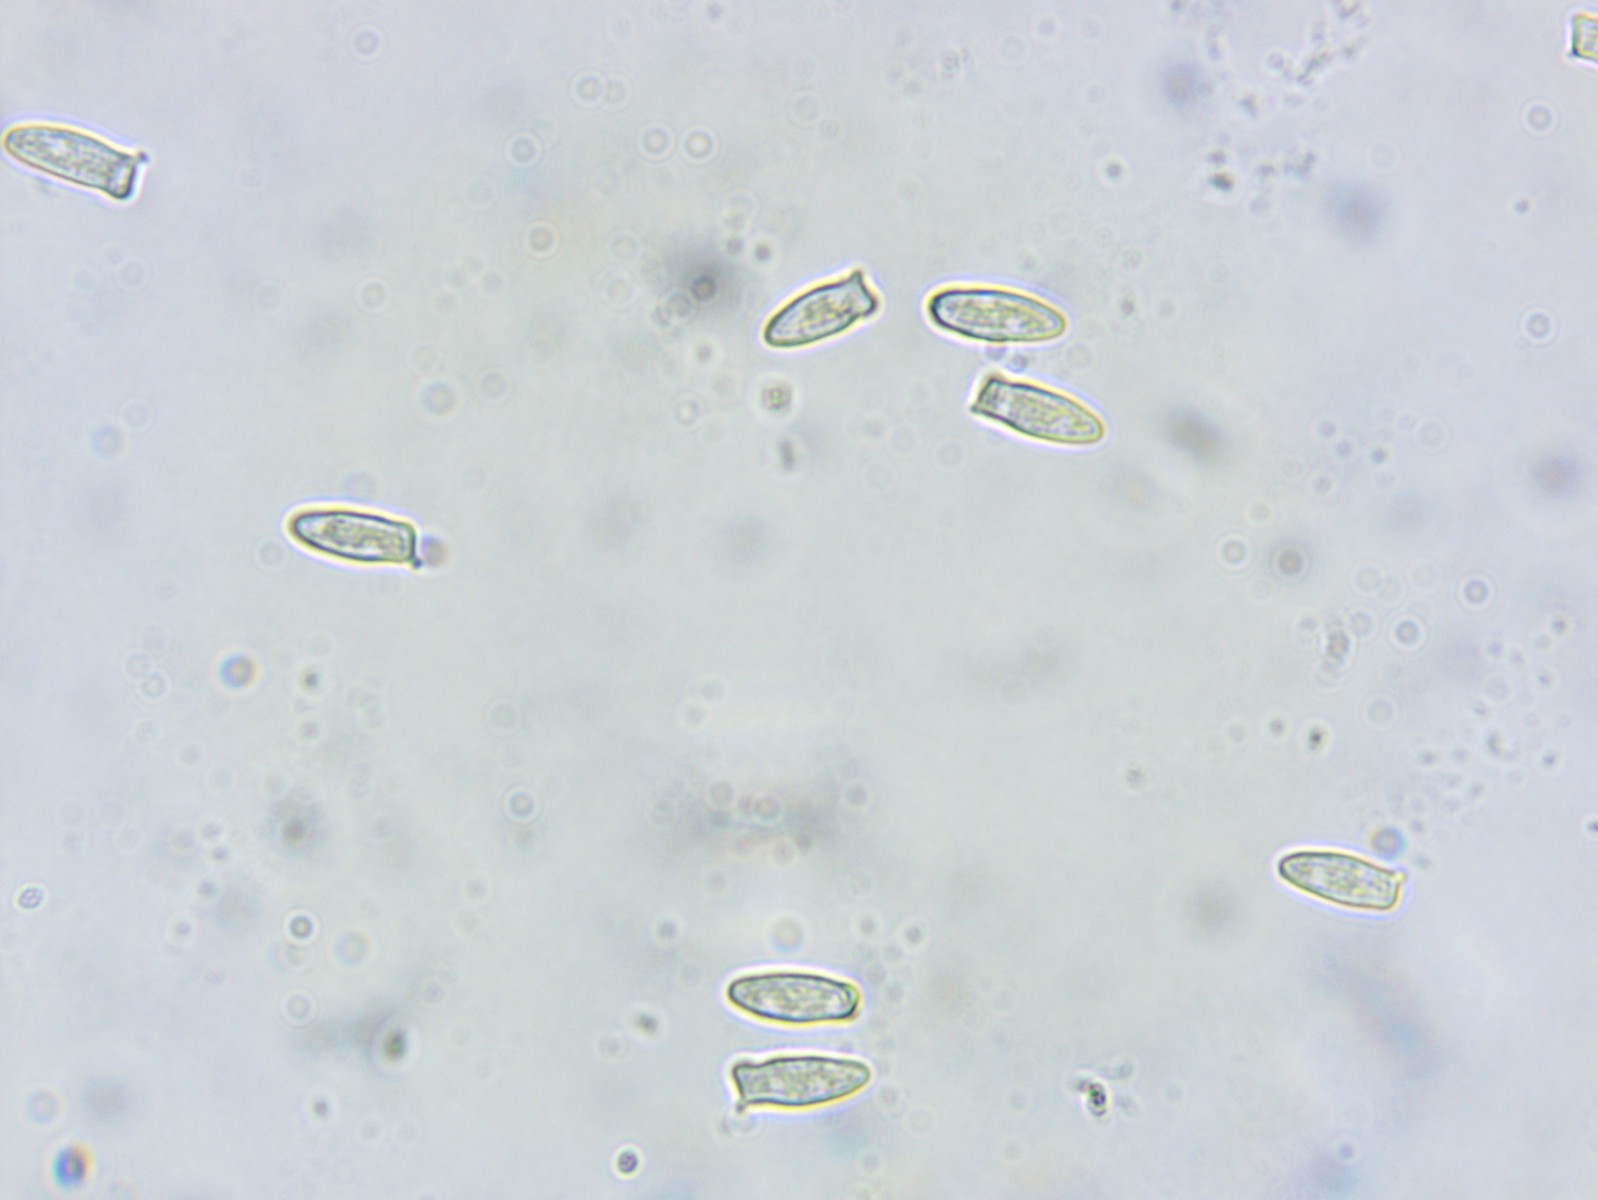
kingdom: Fungi
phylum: Basidiomycota
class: Agaricomycetes
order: Agaricales
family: Agaricaceae
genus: Leucocoprinus
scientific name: Leucocoprinus straminellus
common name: rustbrun parasolhat
